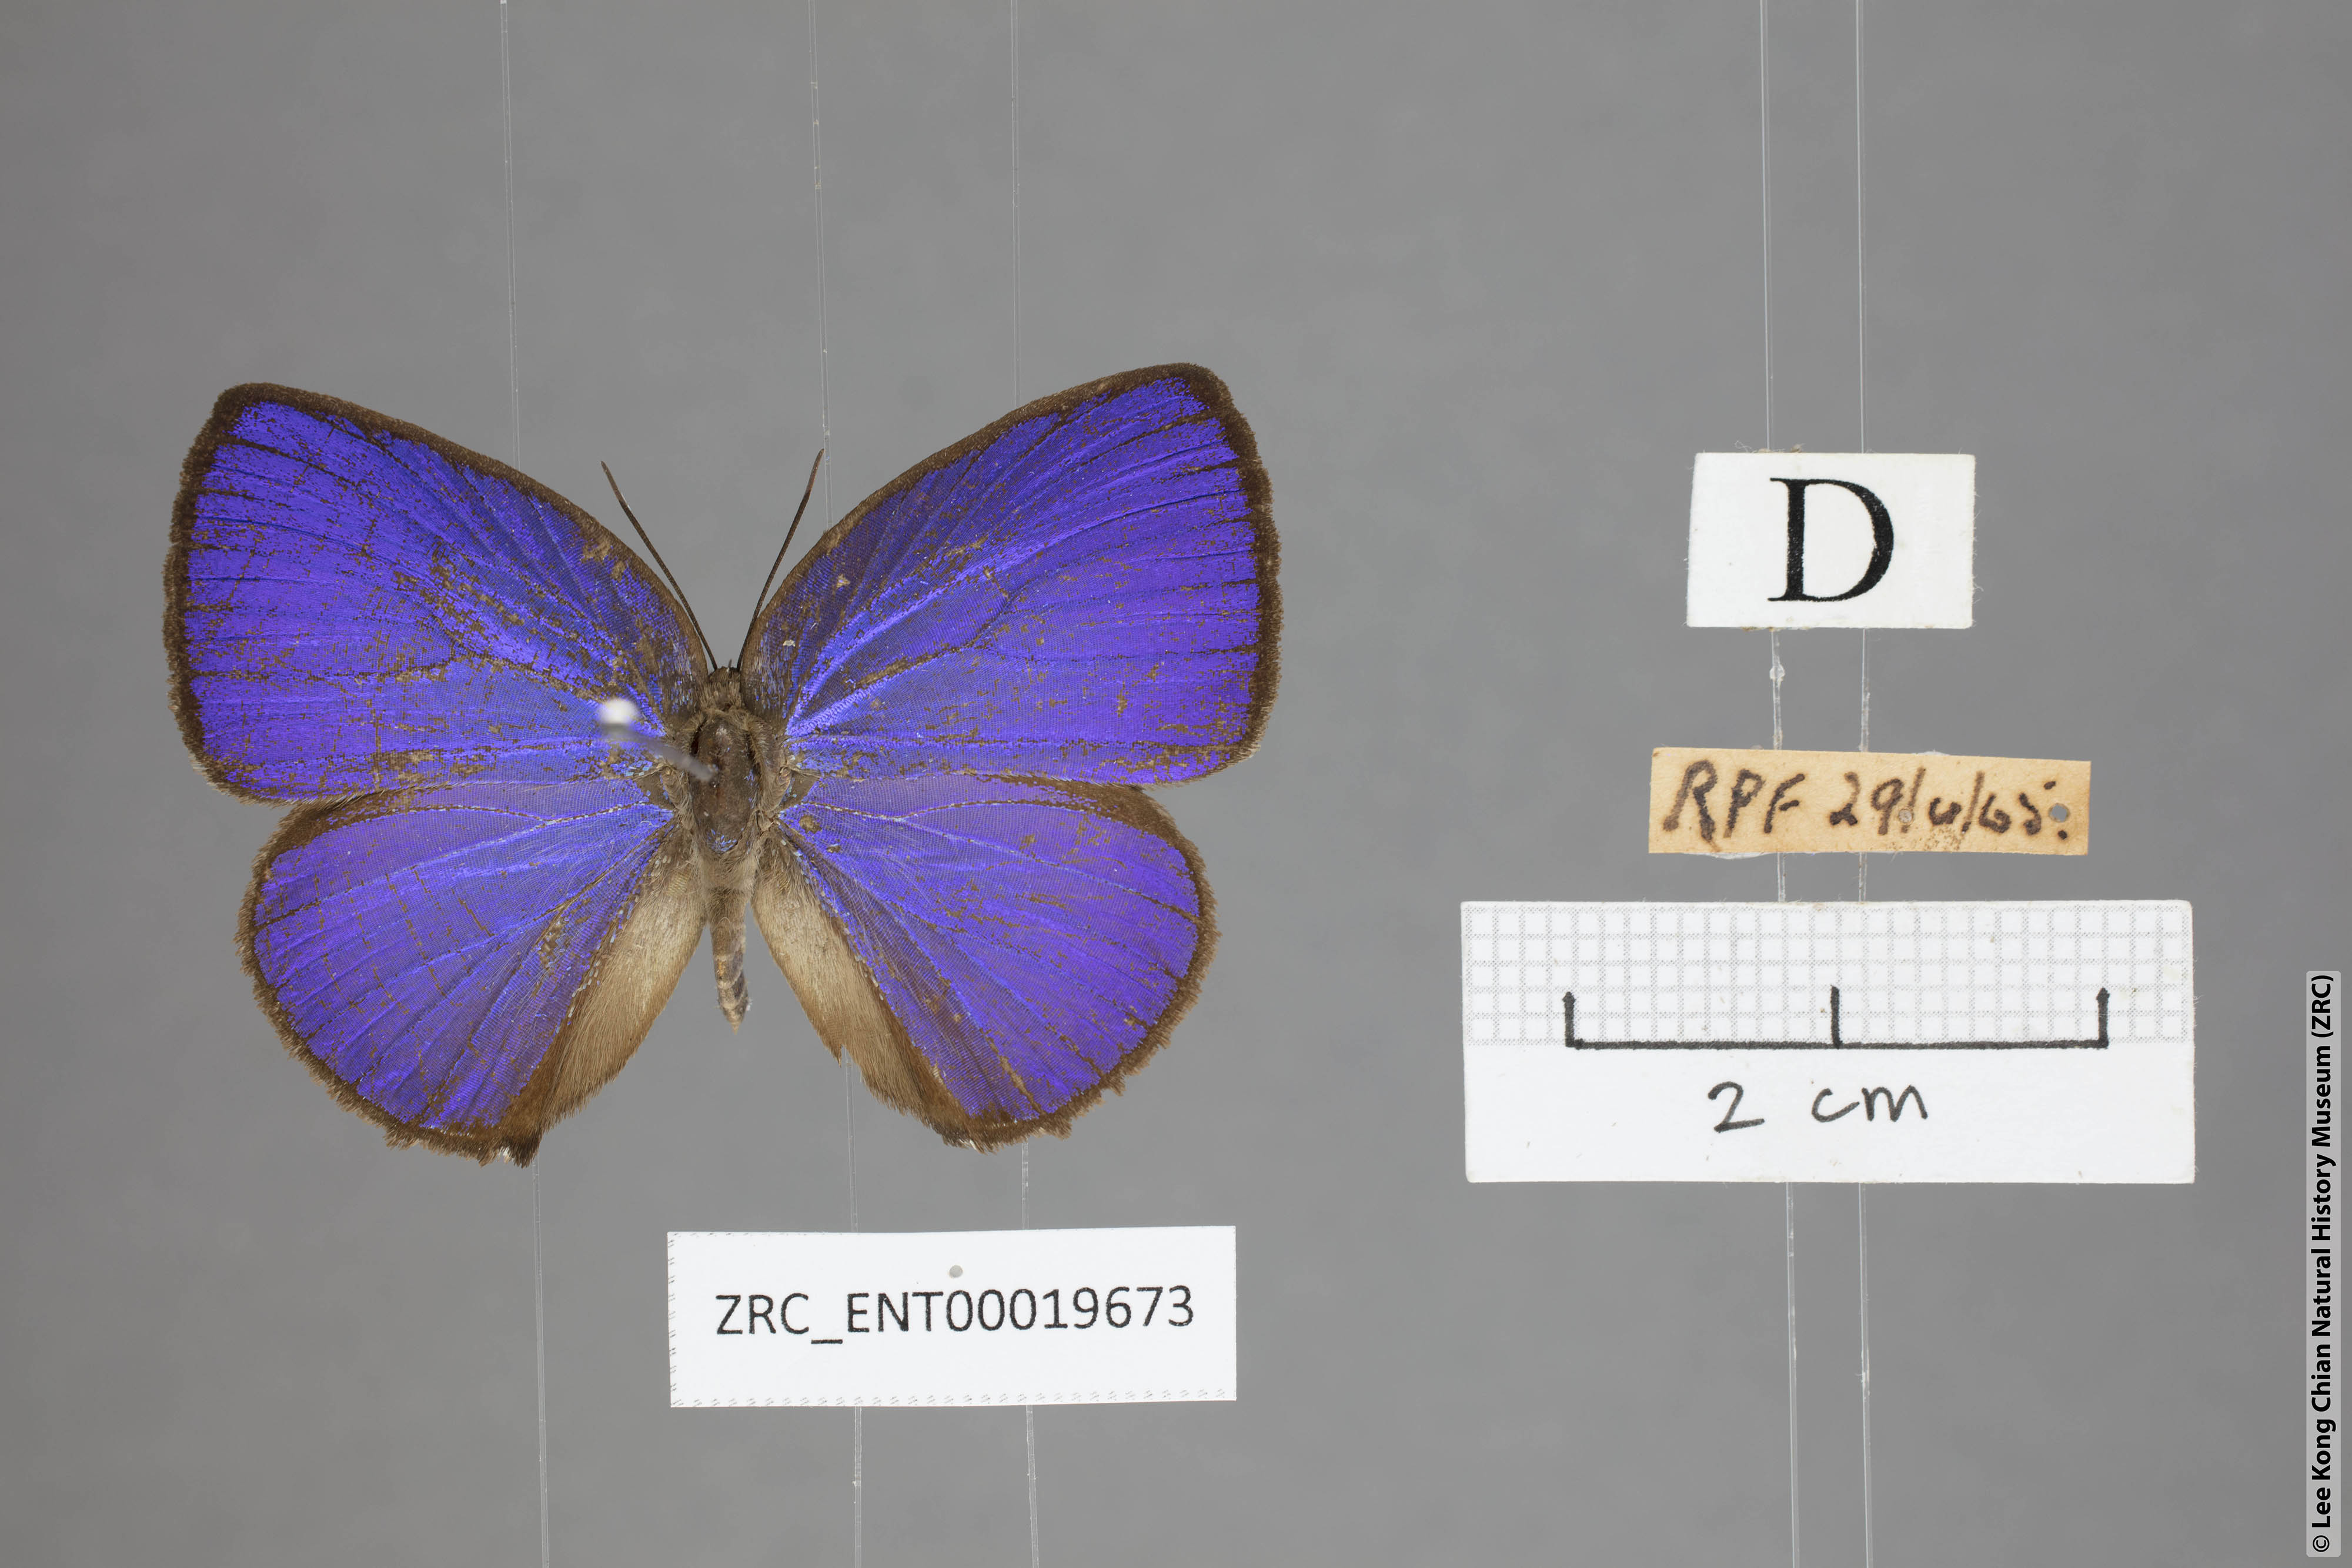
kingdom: Animalia
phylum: Arthropoda
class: Insecta
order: Lepidoptera
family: Lycaenidae
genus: Arhopala
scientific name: Arhopala moolaina
